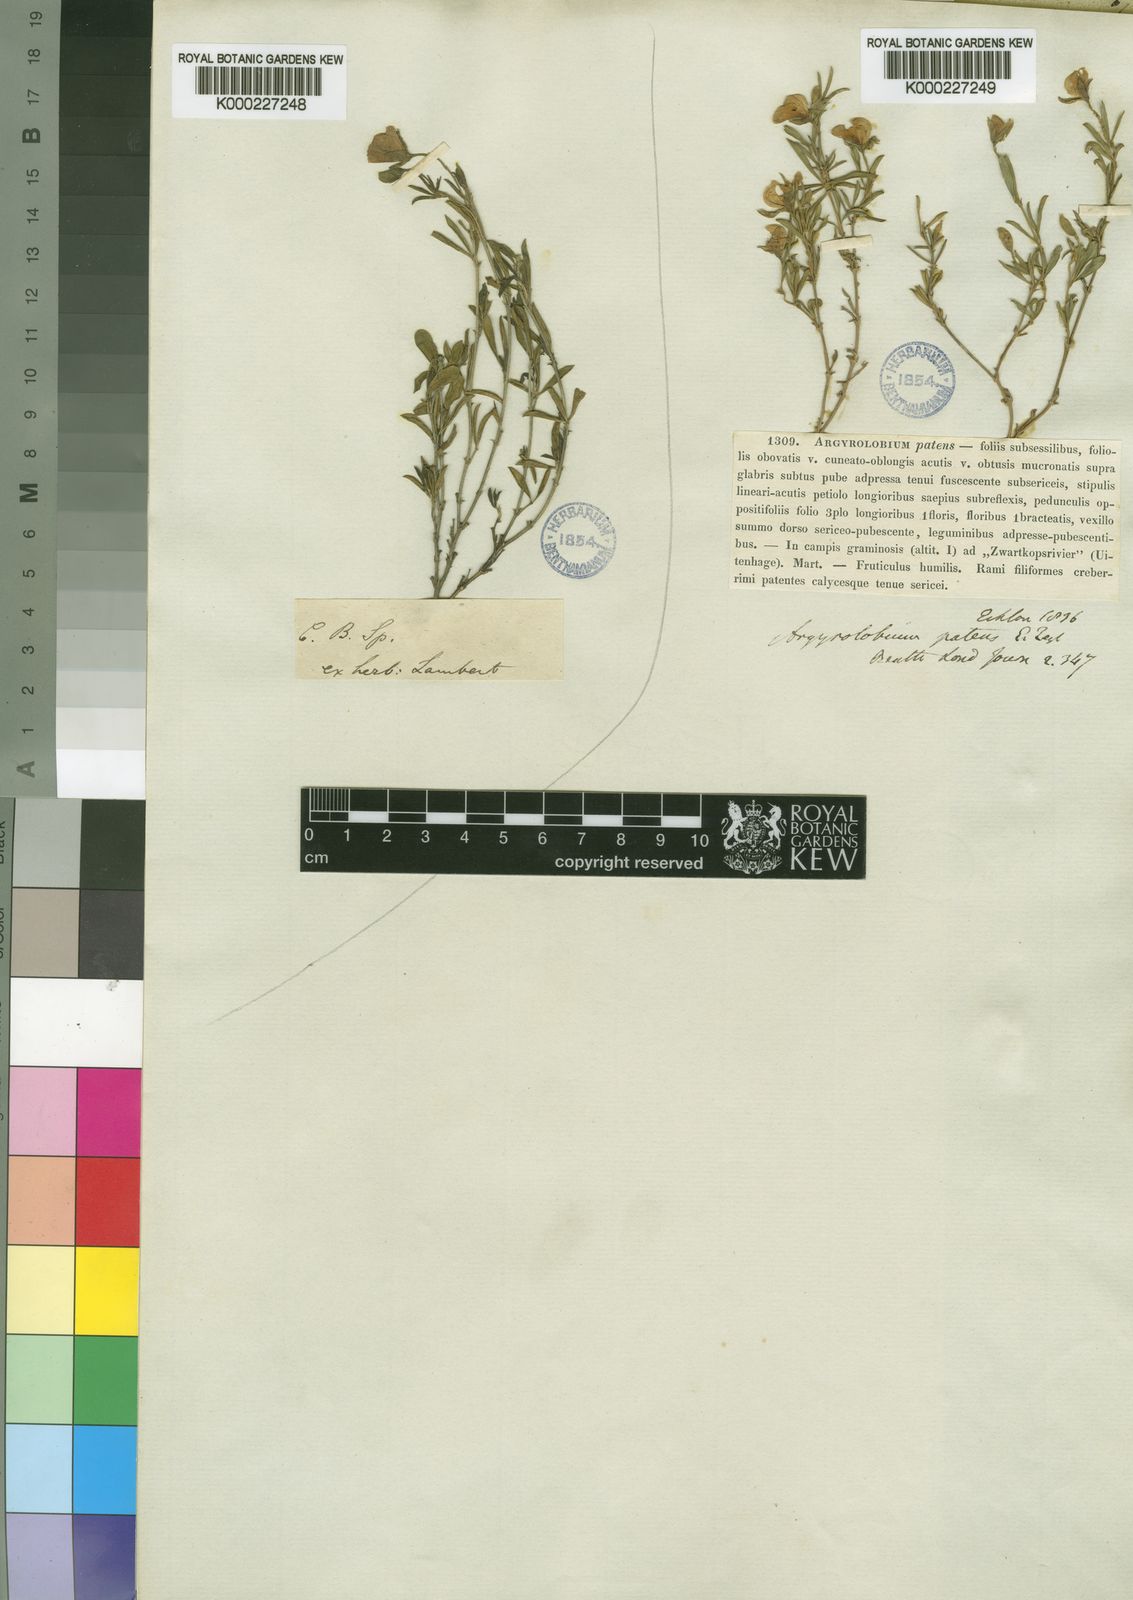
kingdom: Plantae
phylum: Tracheophyta
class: Magnoliopsida
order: Fabales
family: Fabaceae
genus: Argyrolobium
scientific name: Argyrolobium molle
